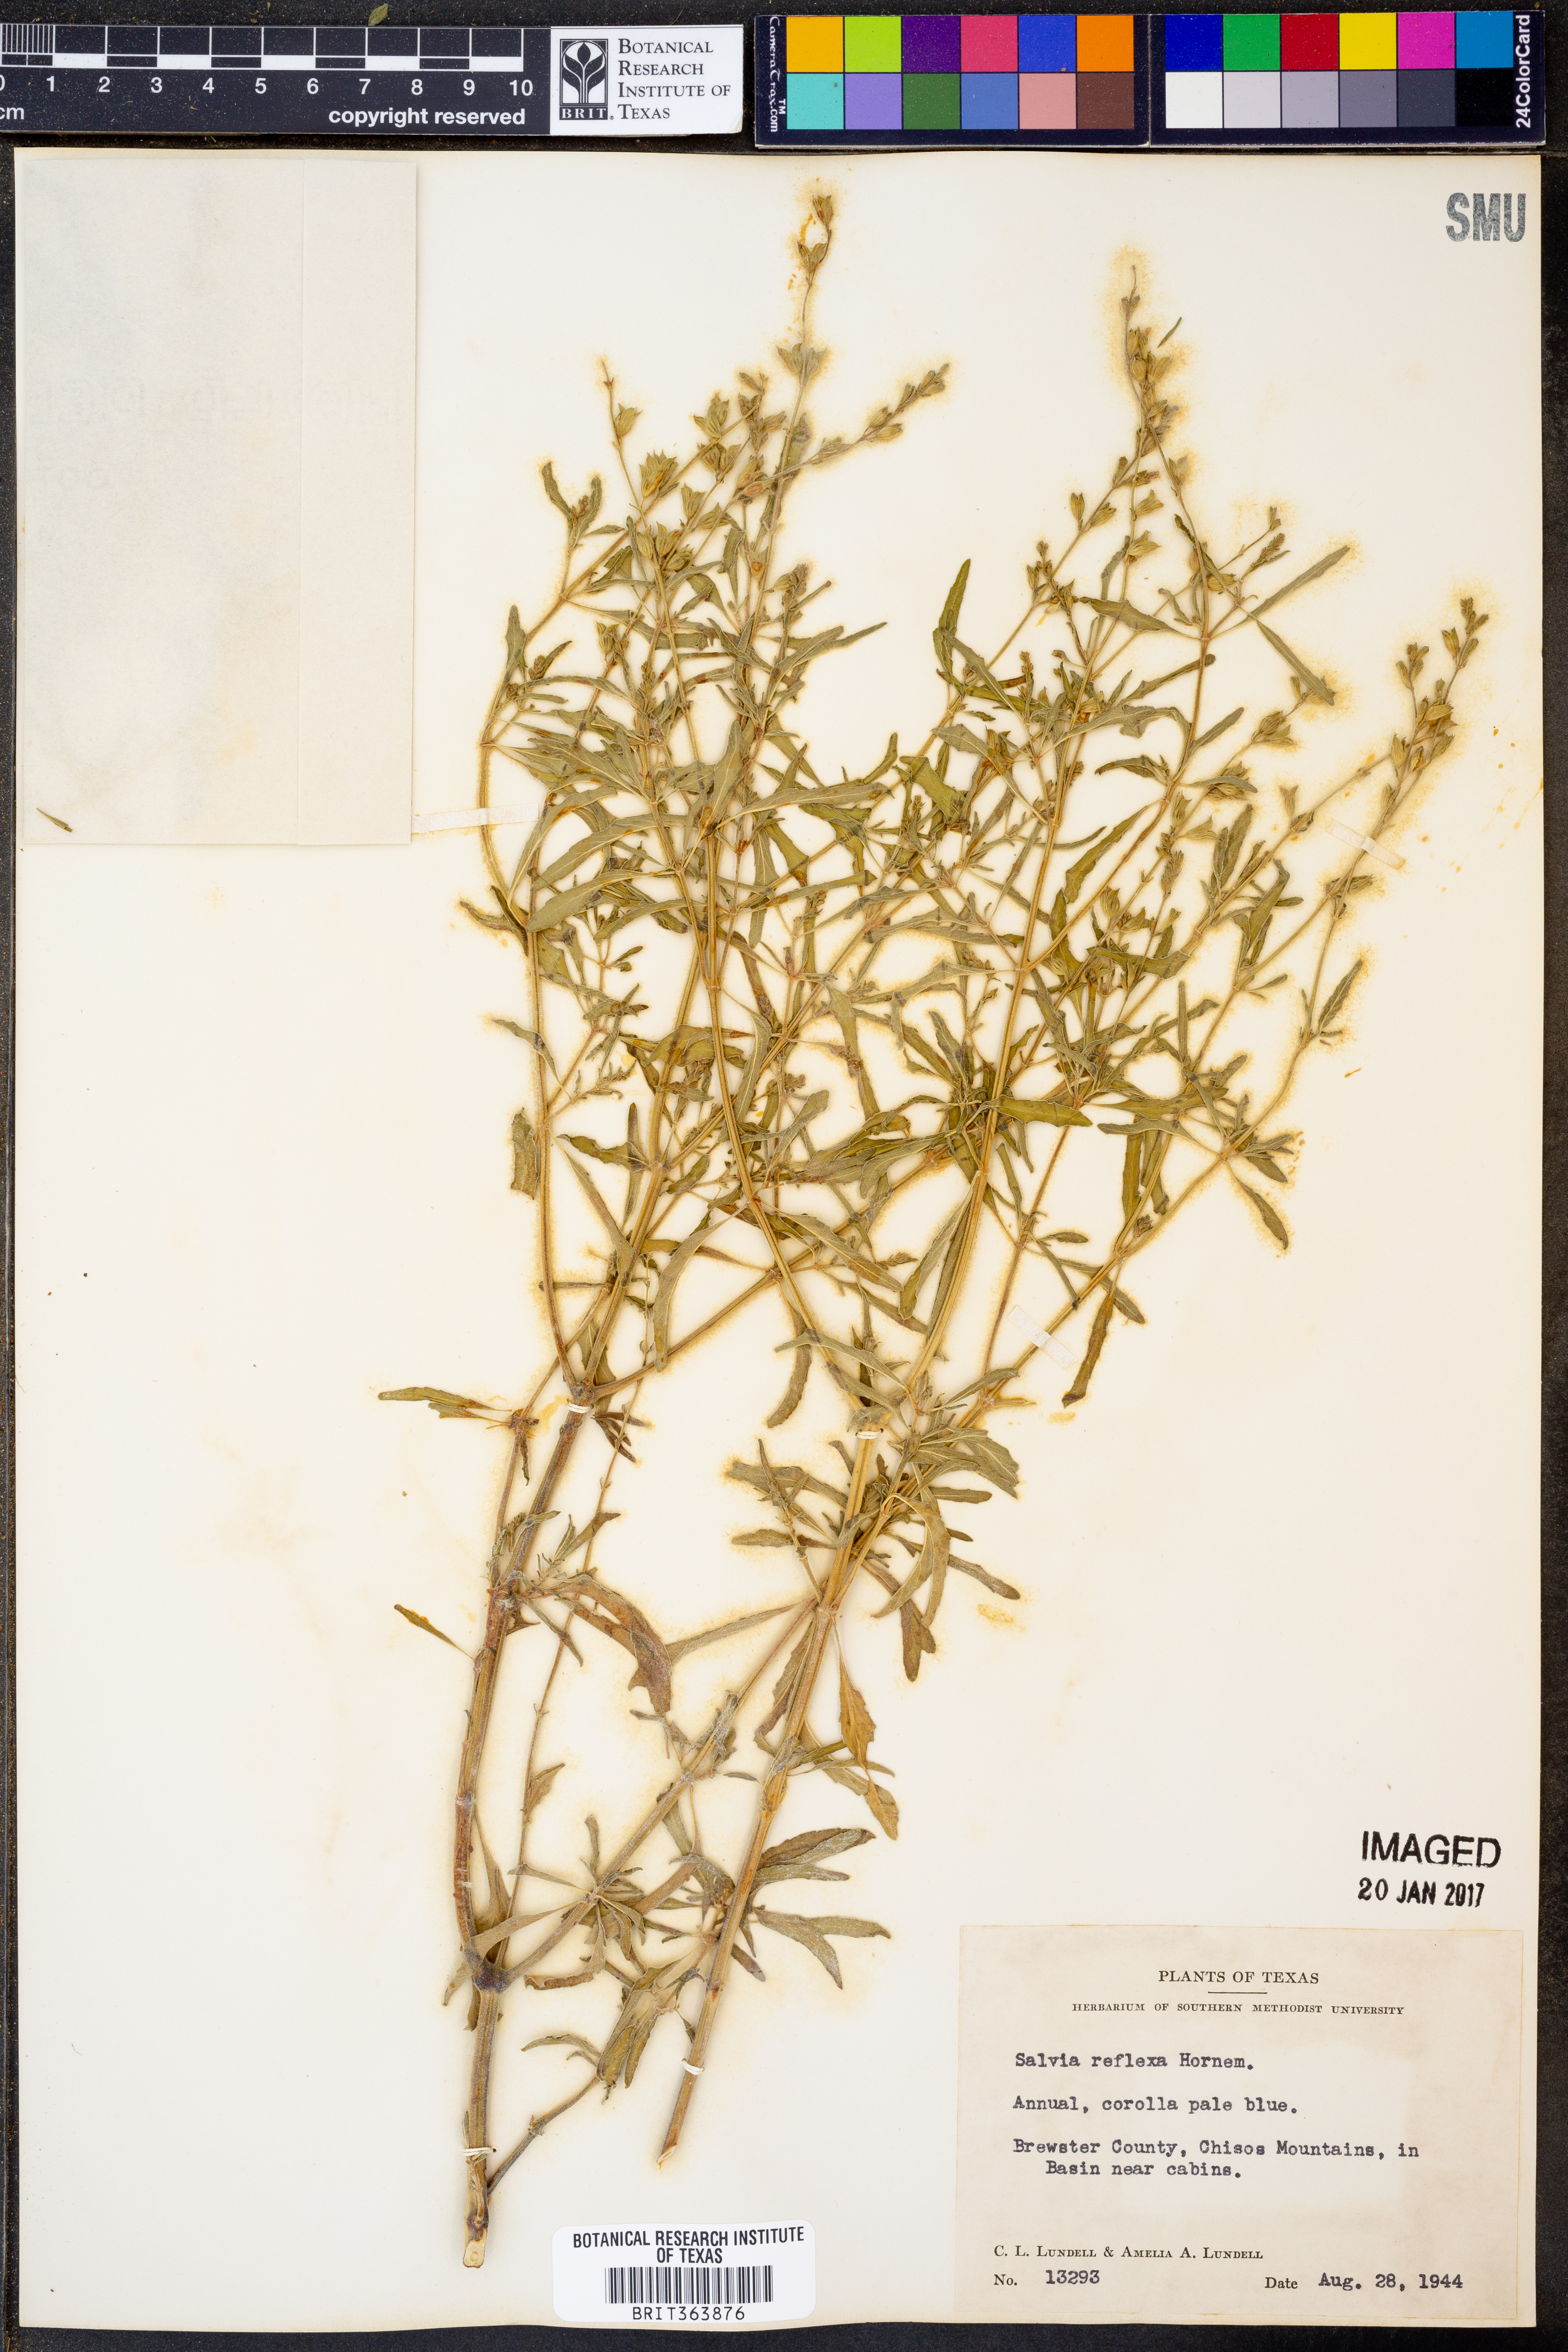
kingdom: Plantae
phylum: Tracheophyta
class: Magnoliopsida
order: Lamiales
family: Lamiaceae
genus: Salvia
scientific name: Salvia reflexa
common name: Mintweed
